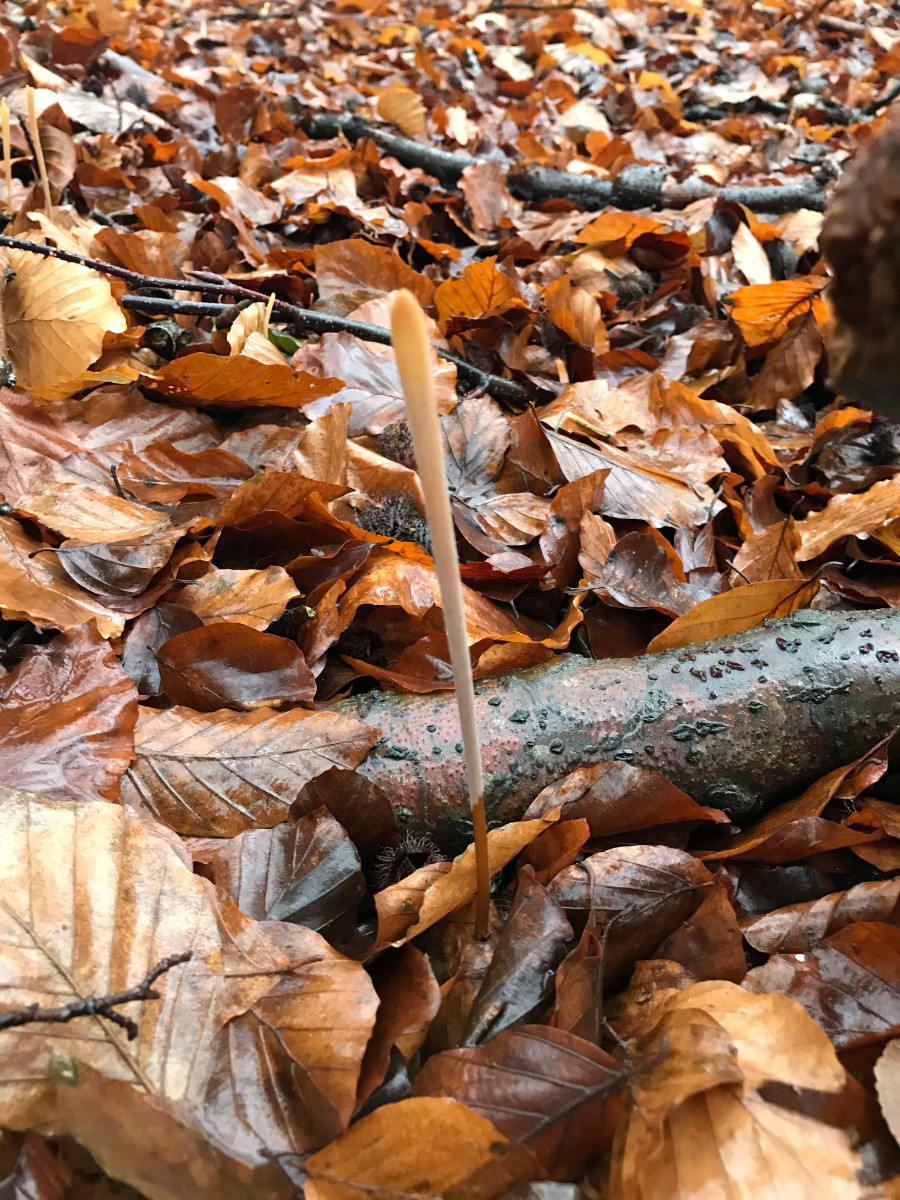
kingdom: Fungi
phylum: Basidiomycota
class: Agaricomycetes
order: Agaricales
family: Typhulaceae
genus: Typhula
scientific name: Typhula fistulosa
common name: pibet rørkølle
